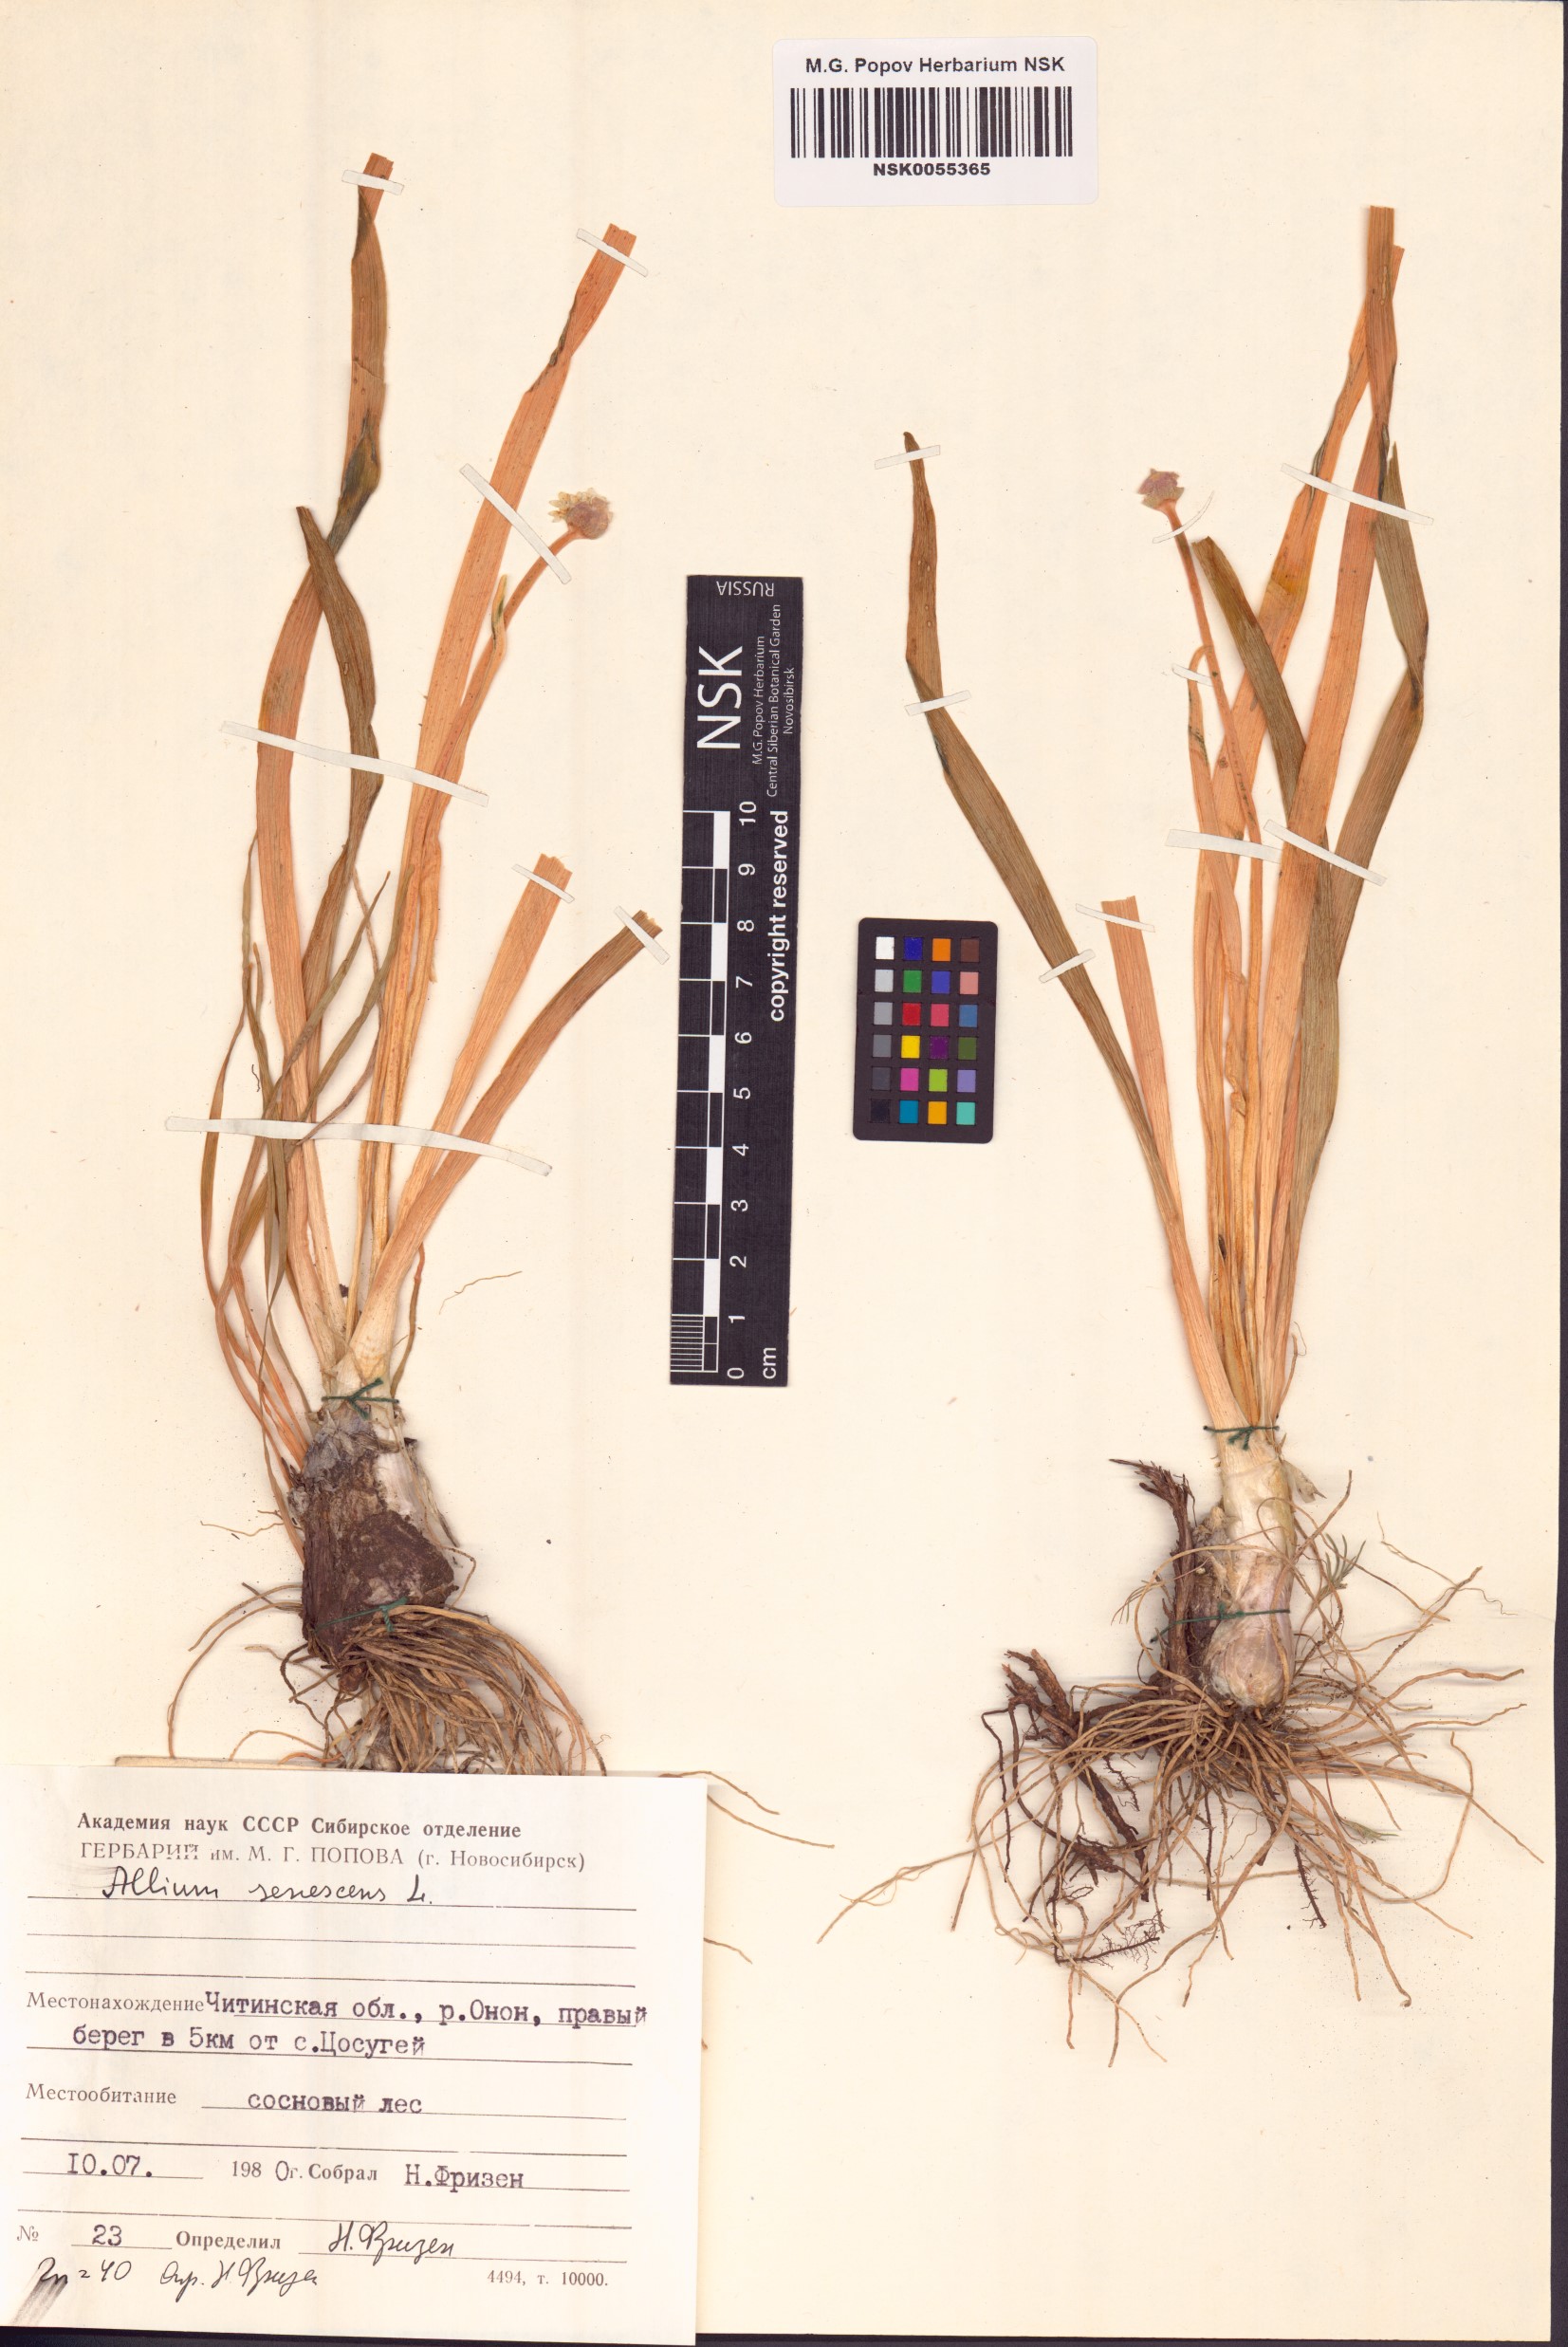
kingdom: Plantae
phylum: Tracheophyta
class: Liliopsida
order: Asparagales
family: Amaryllidaceae
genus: Allium
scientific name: Allium senescens
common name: German garlic
